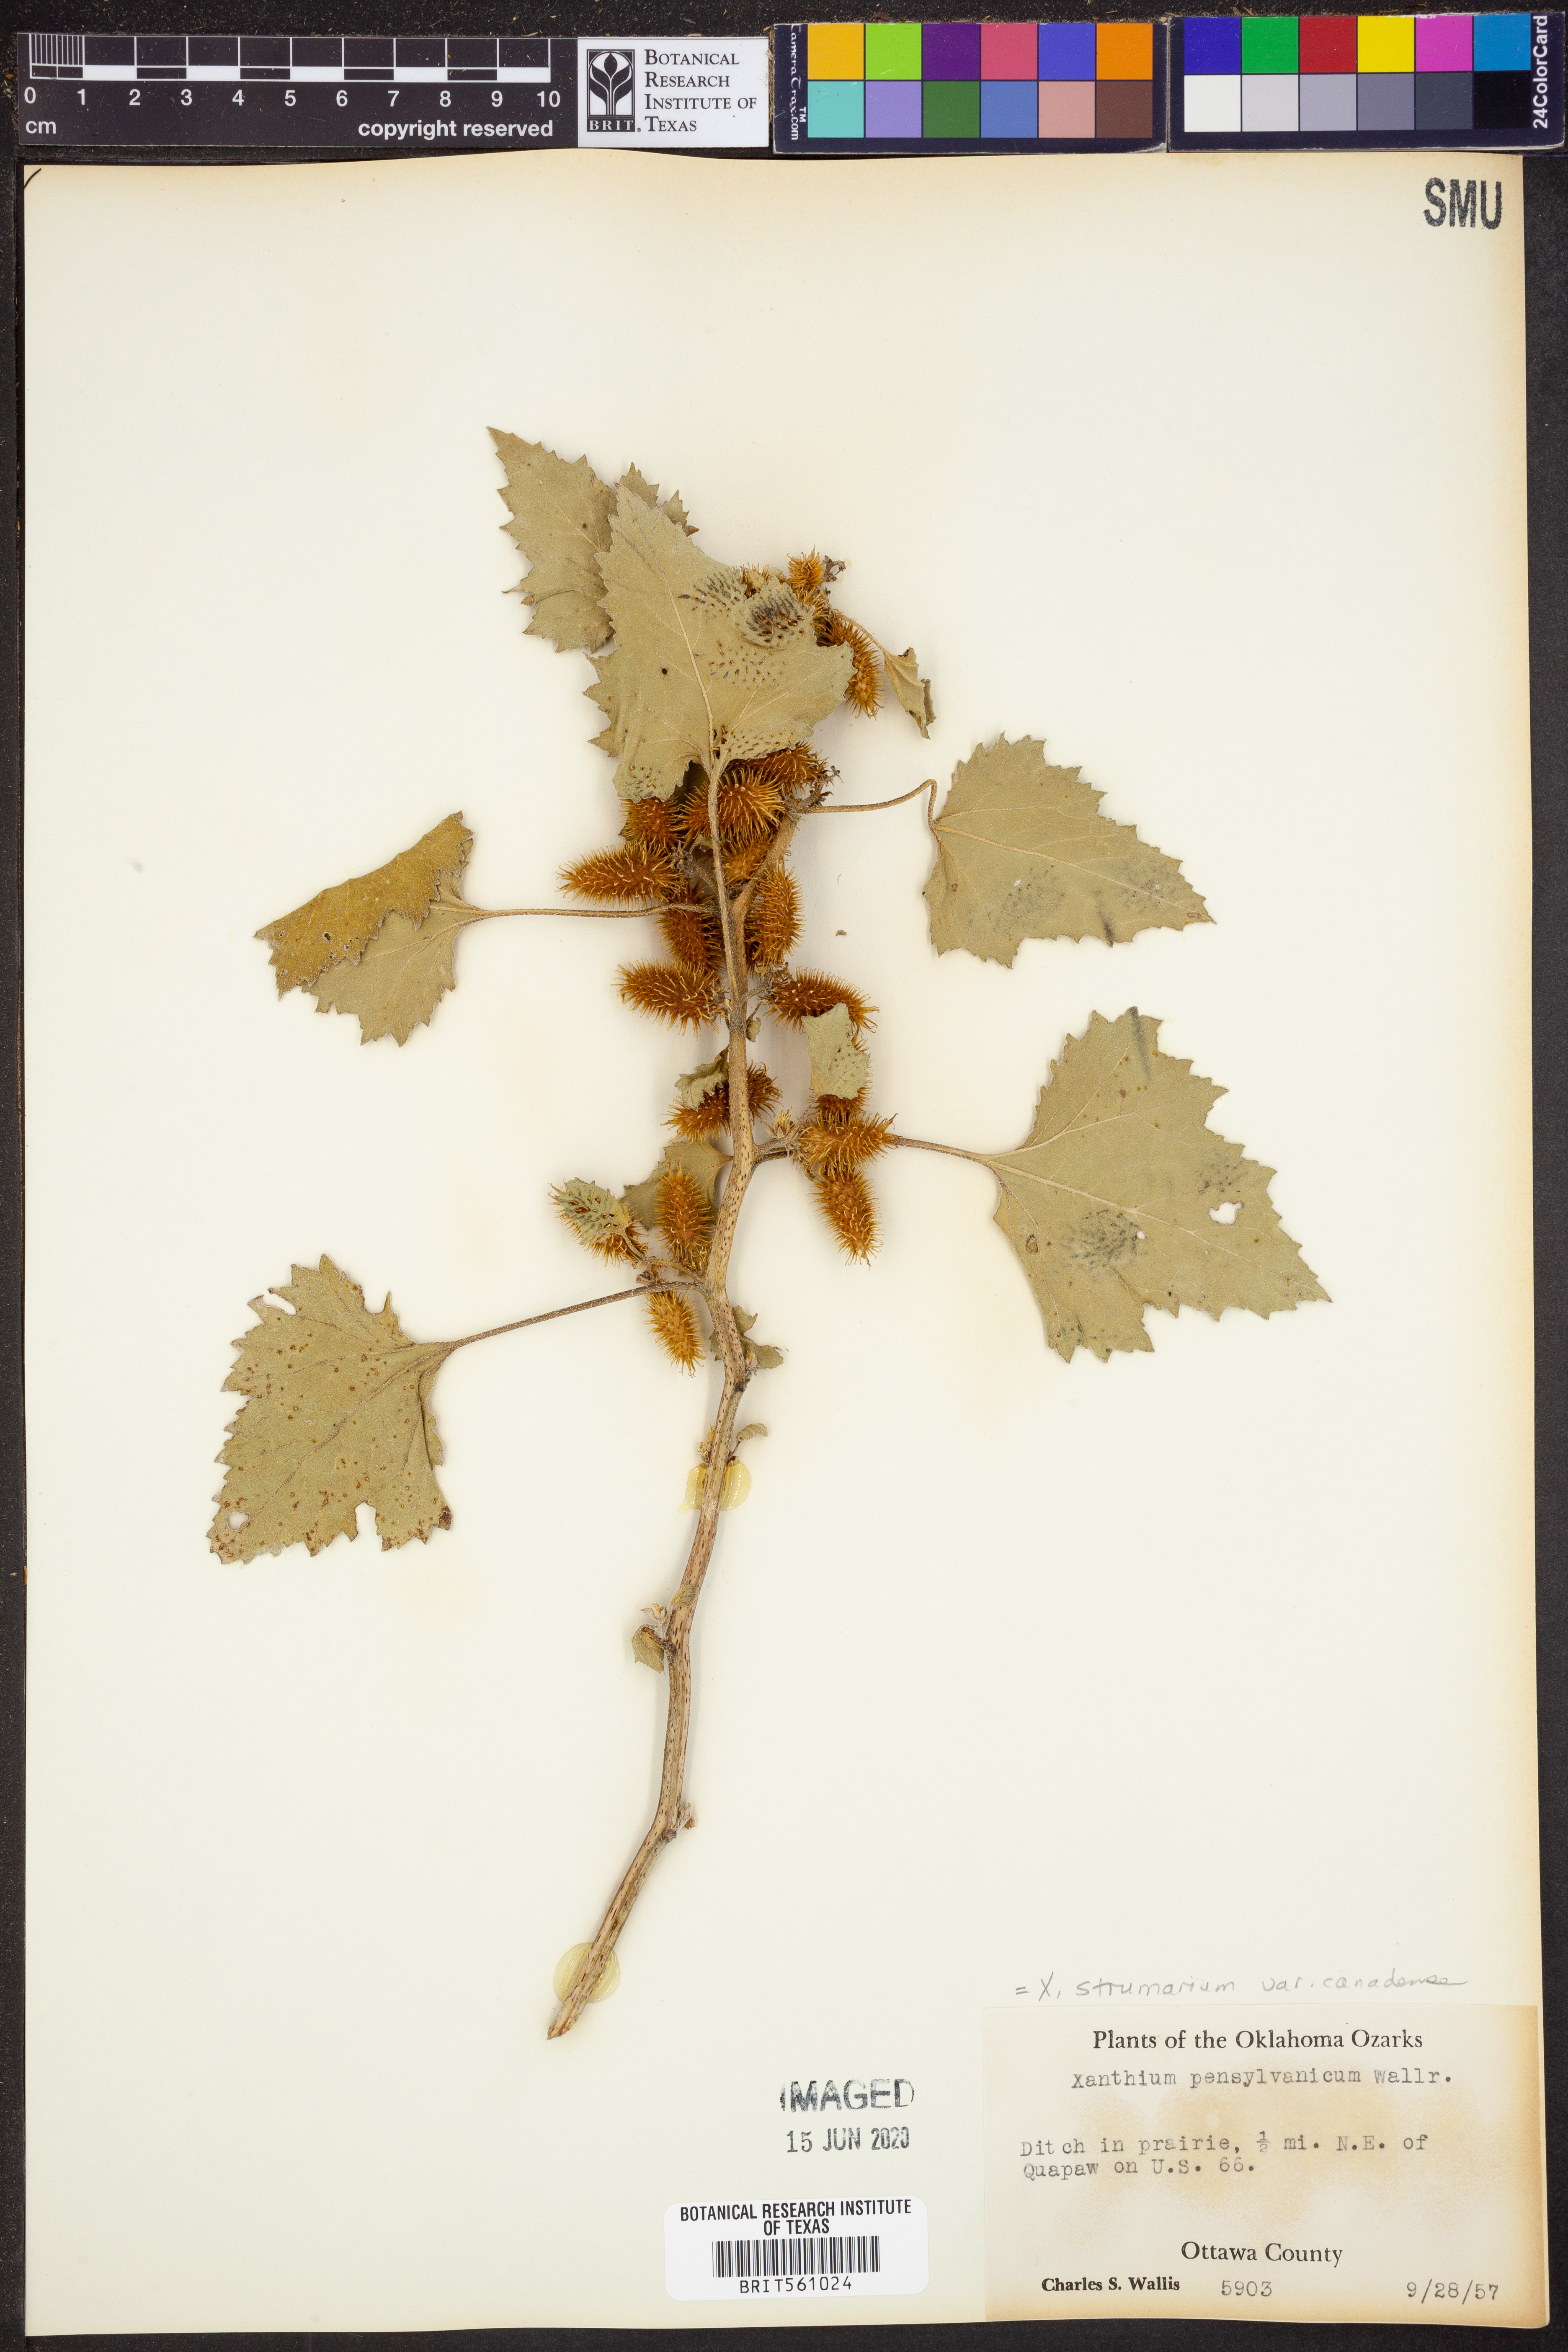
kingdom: Plantae
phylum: Tracheophyta
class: Magnoliopsida
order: Asterales
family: Asteraceae
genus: Xanthium
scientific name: Xanthium orientale
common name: Californian burr
